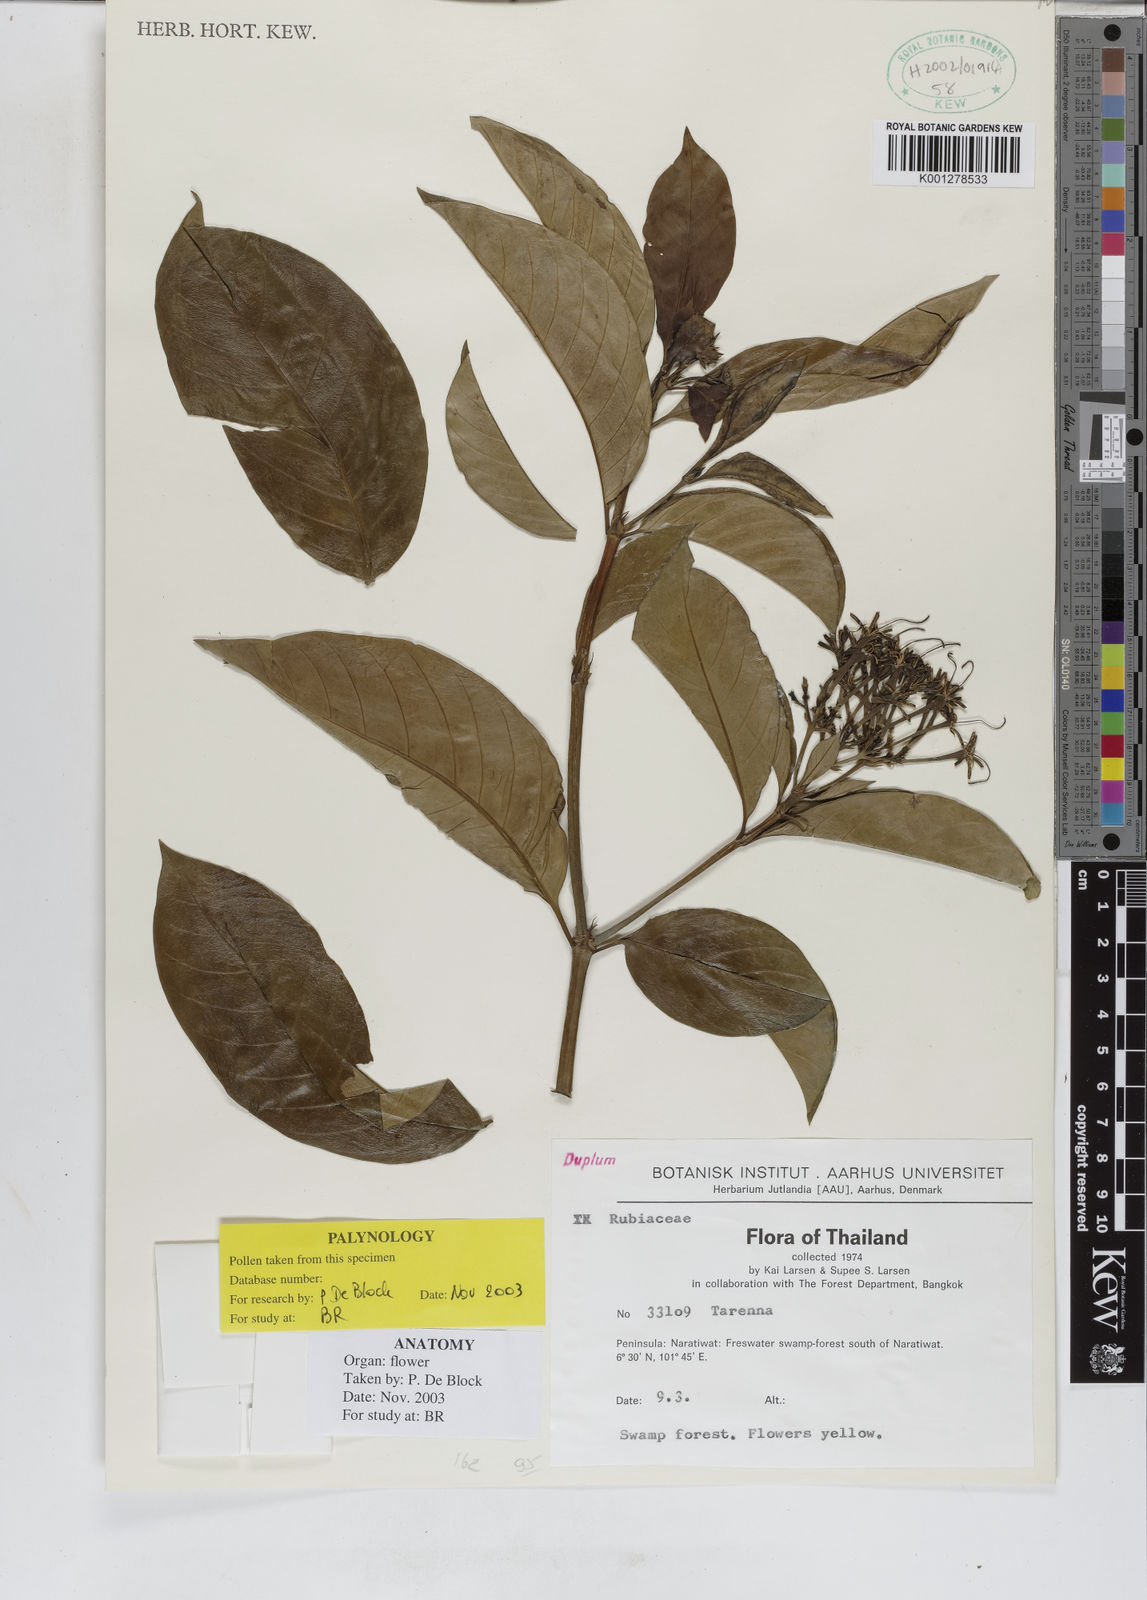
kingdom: Plantae
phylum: Tracheophyta
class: Magnoliopsida
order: Gentianales
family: Rubiaceae
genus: Tarenna
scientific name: Tarenna
